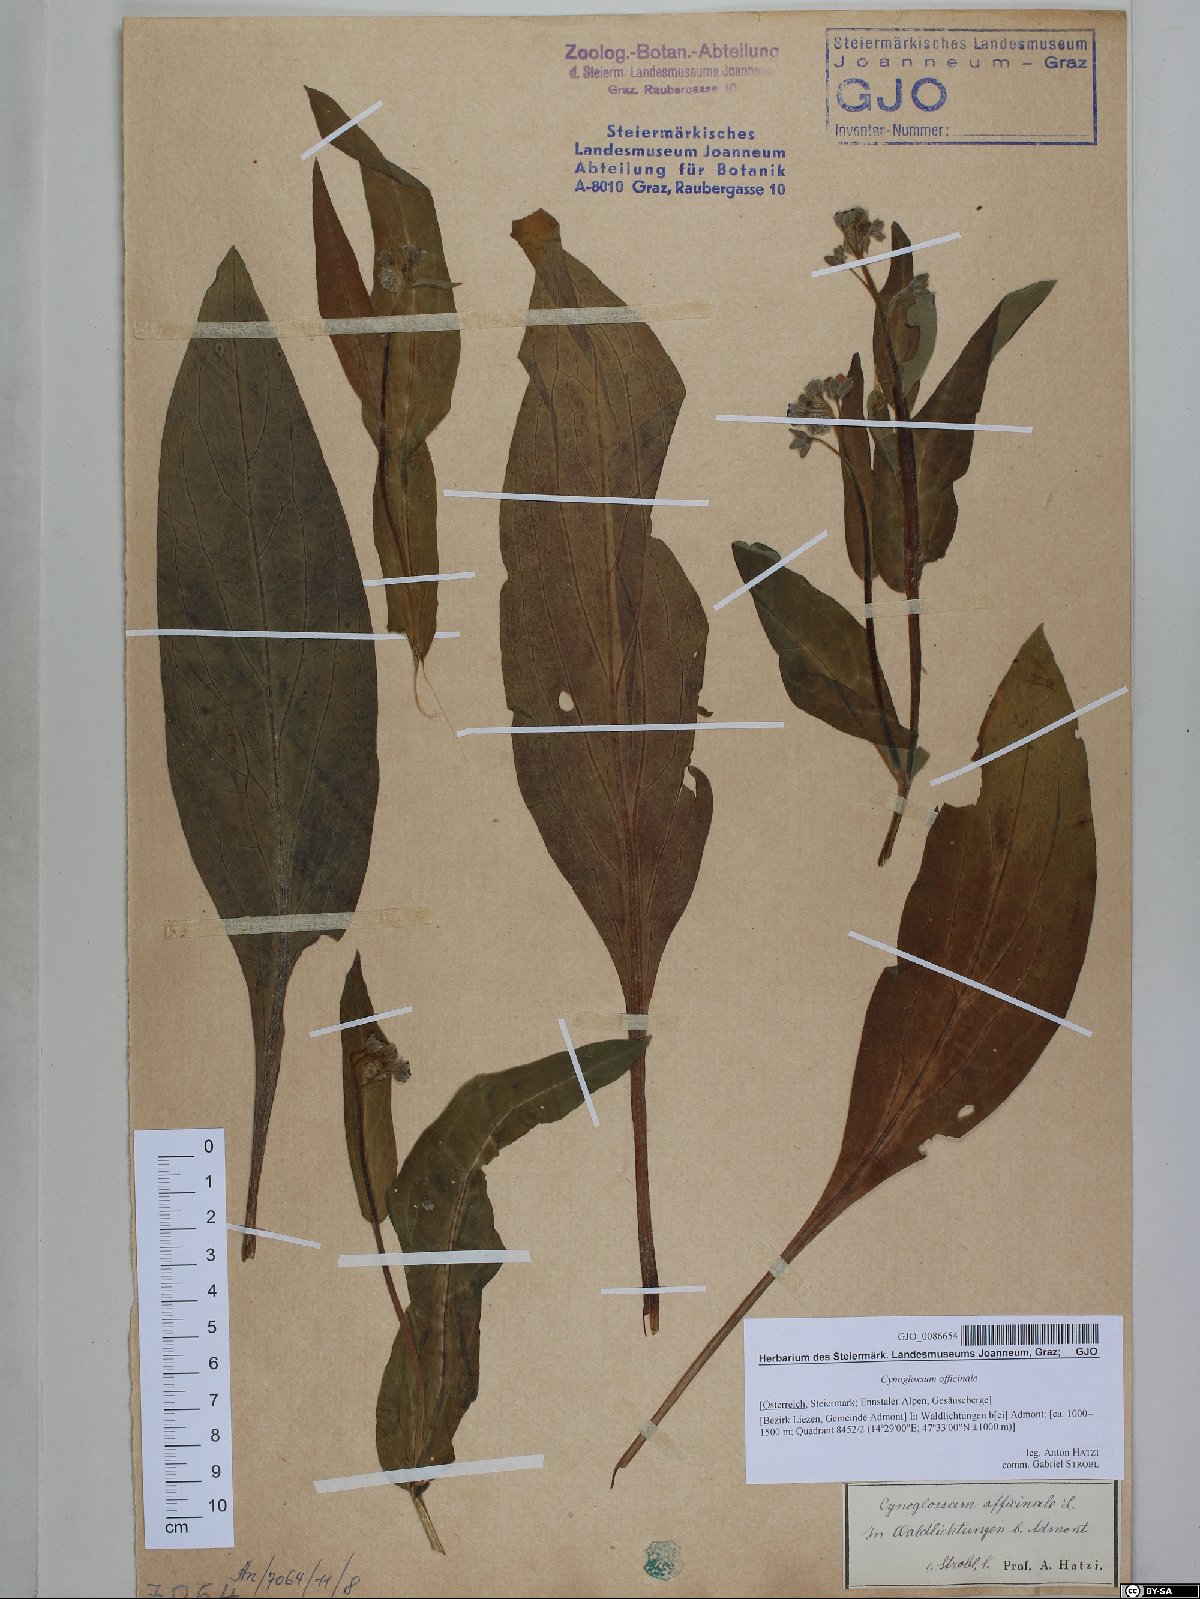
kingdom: Plantae
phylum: Tracheophyta
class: Magnoliopsida
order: Boraginales
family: Boraginaceae
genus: Cynoglossum
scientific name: Cynoglossum officinale
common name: Hound's-tongue
